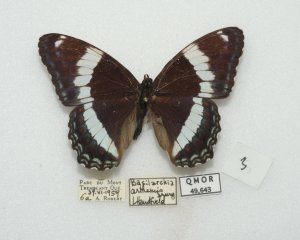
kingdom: Animalia
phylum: Arthropoda
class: Insecta
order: Lepidoptera
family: Nymphalidae
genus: Limenitis
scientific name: Limenitis arthemis
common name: Red-spotted Admiral
